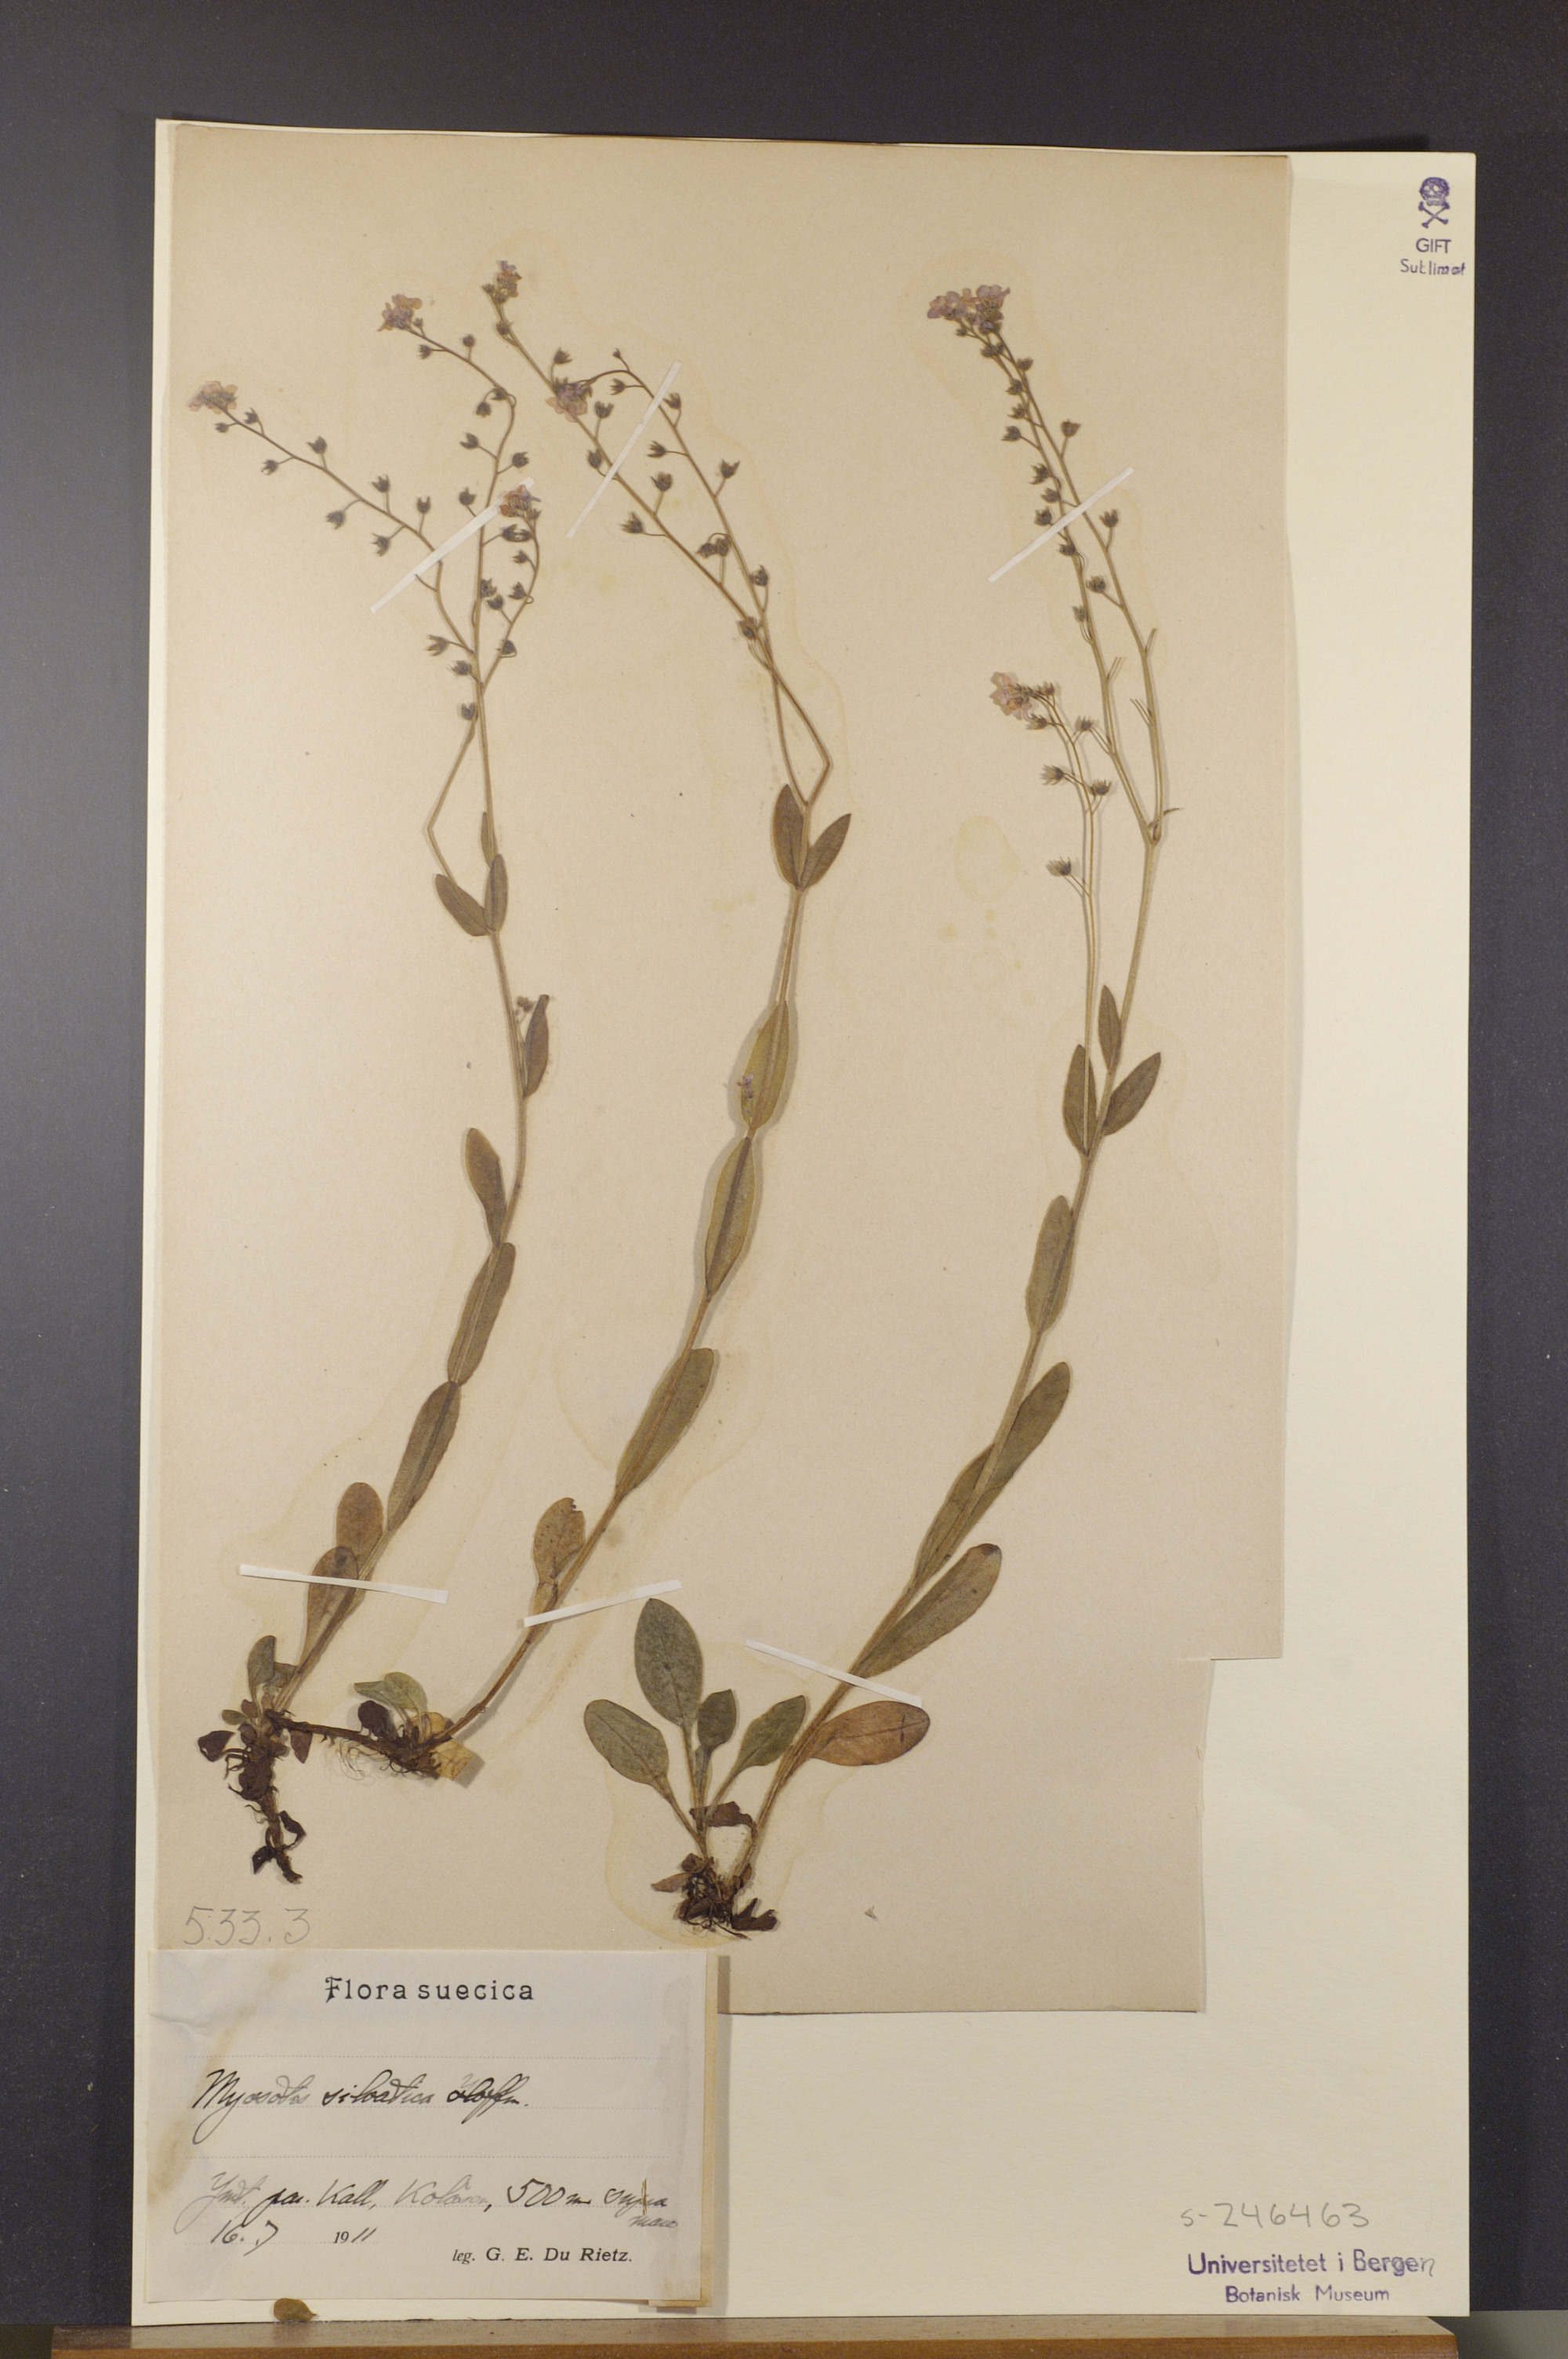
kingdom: Plantae
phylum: Tracheophyta
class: Magnoliopsida
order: Boraginales
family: Boraginaceae
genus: Myosotis
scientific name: Myosotis decumbens
